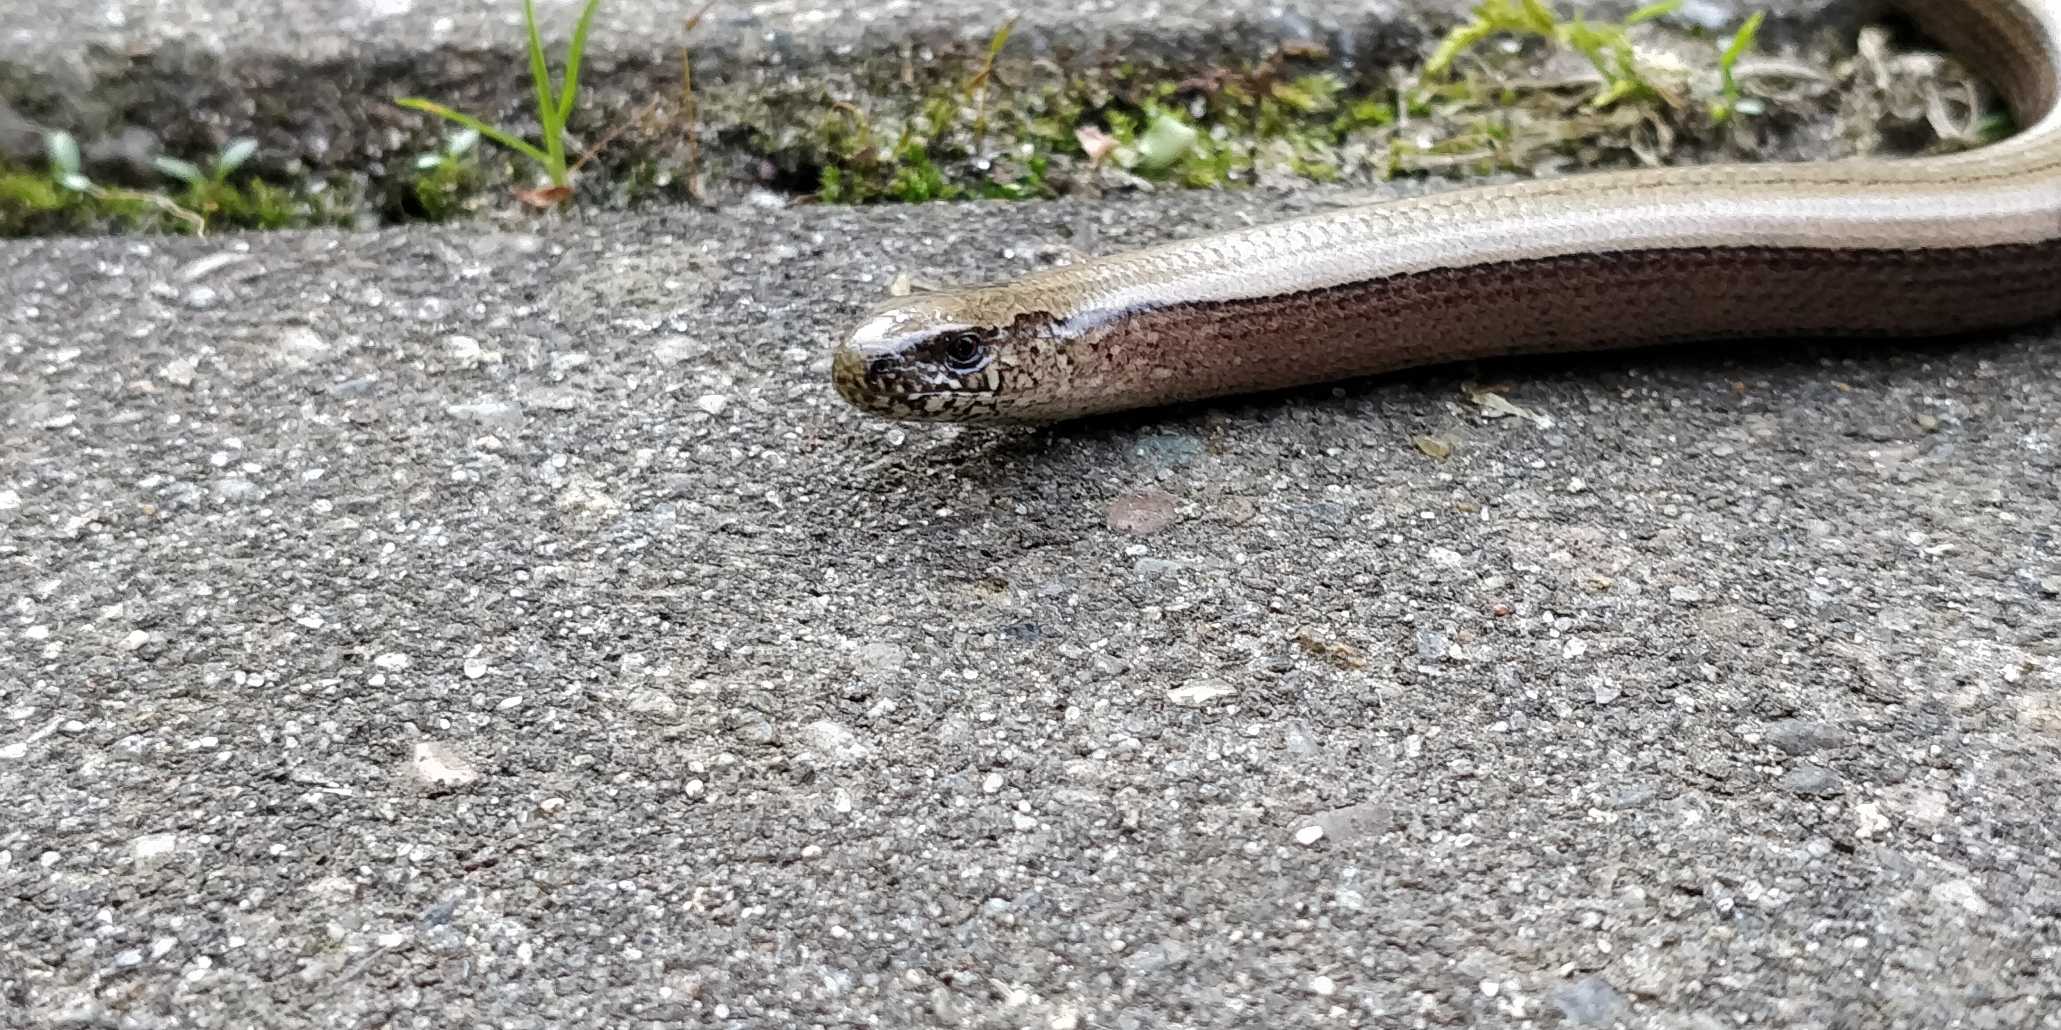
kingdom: Animalia
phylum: Chordata
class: Squamata
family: Anguidae
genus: Anguis
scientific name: Anguis fragilis
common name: Stålorm
